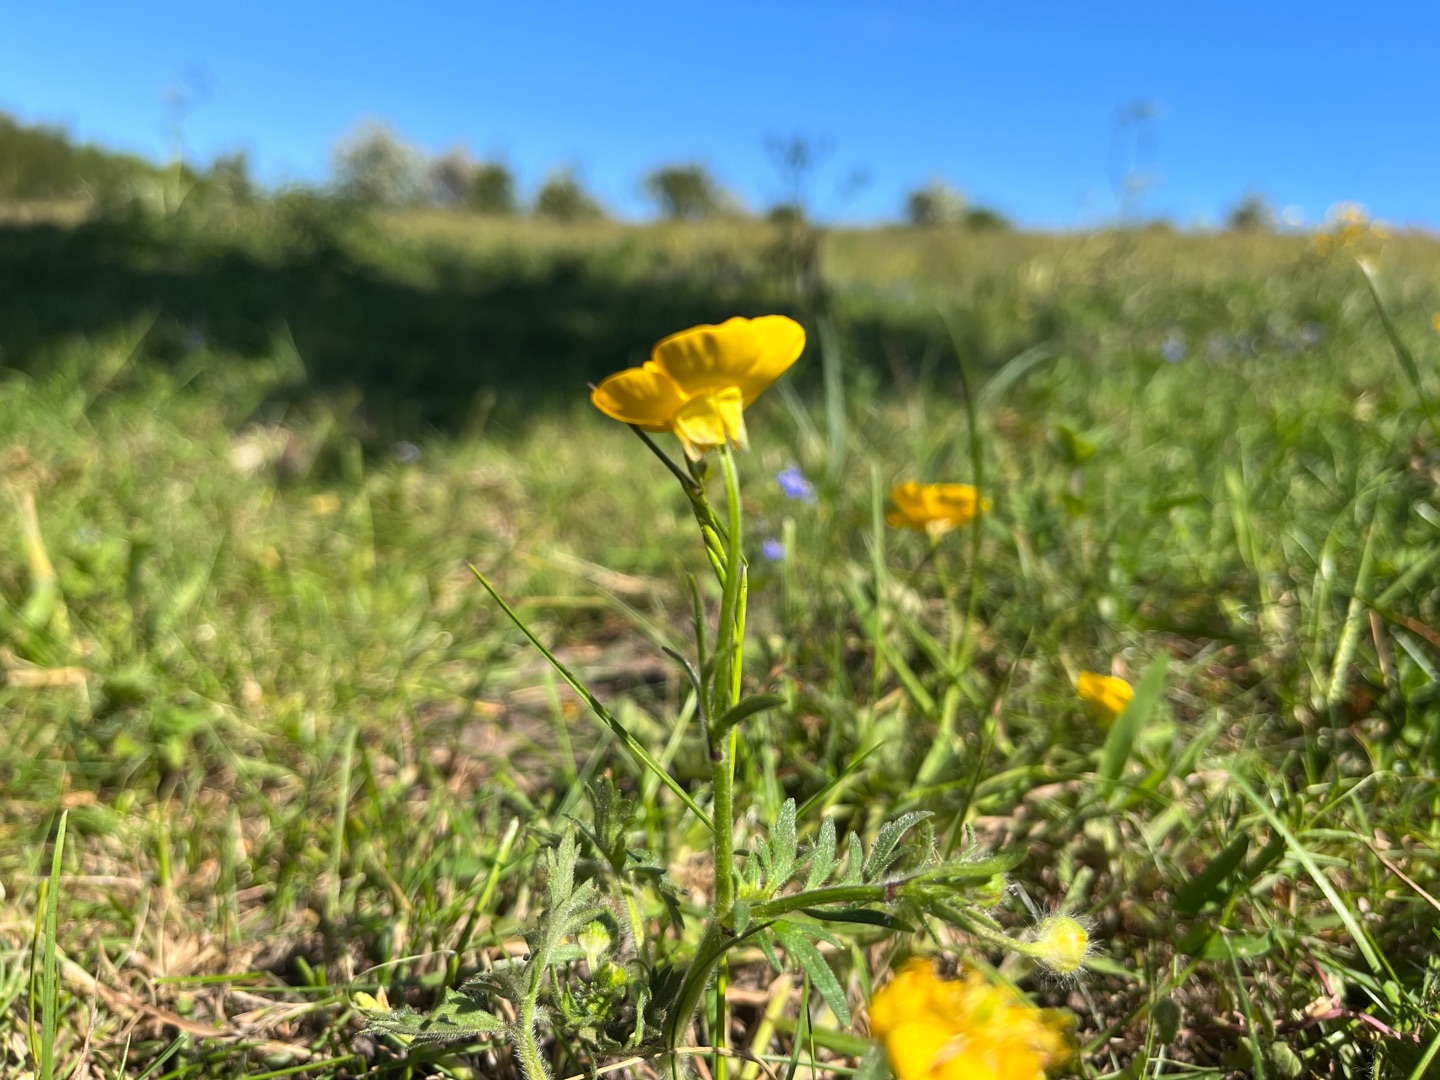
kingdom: Plantae
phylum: Tracheophyta
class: Magnoliopsida
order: Ranunculales
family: Ranunculaceae
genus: Ranunculus
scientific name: Ranunculus bulbosus
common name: Knold-ranunkel
